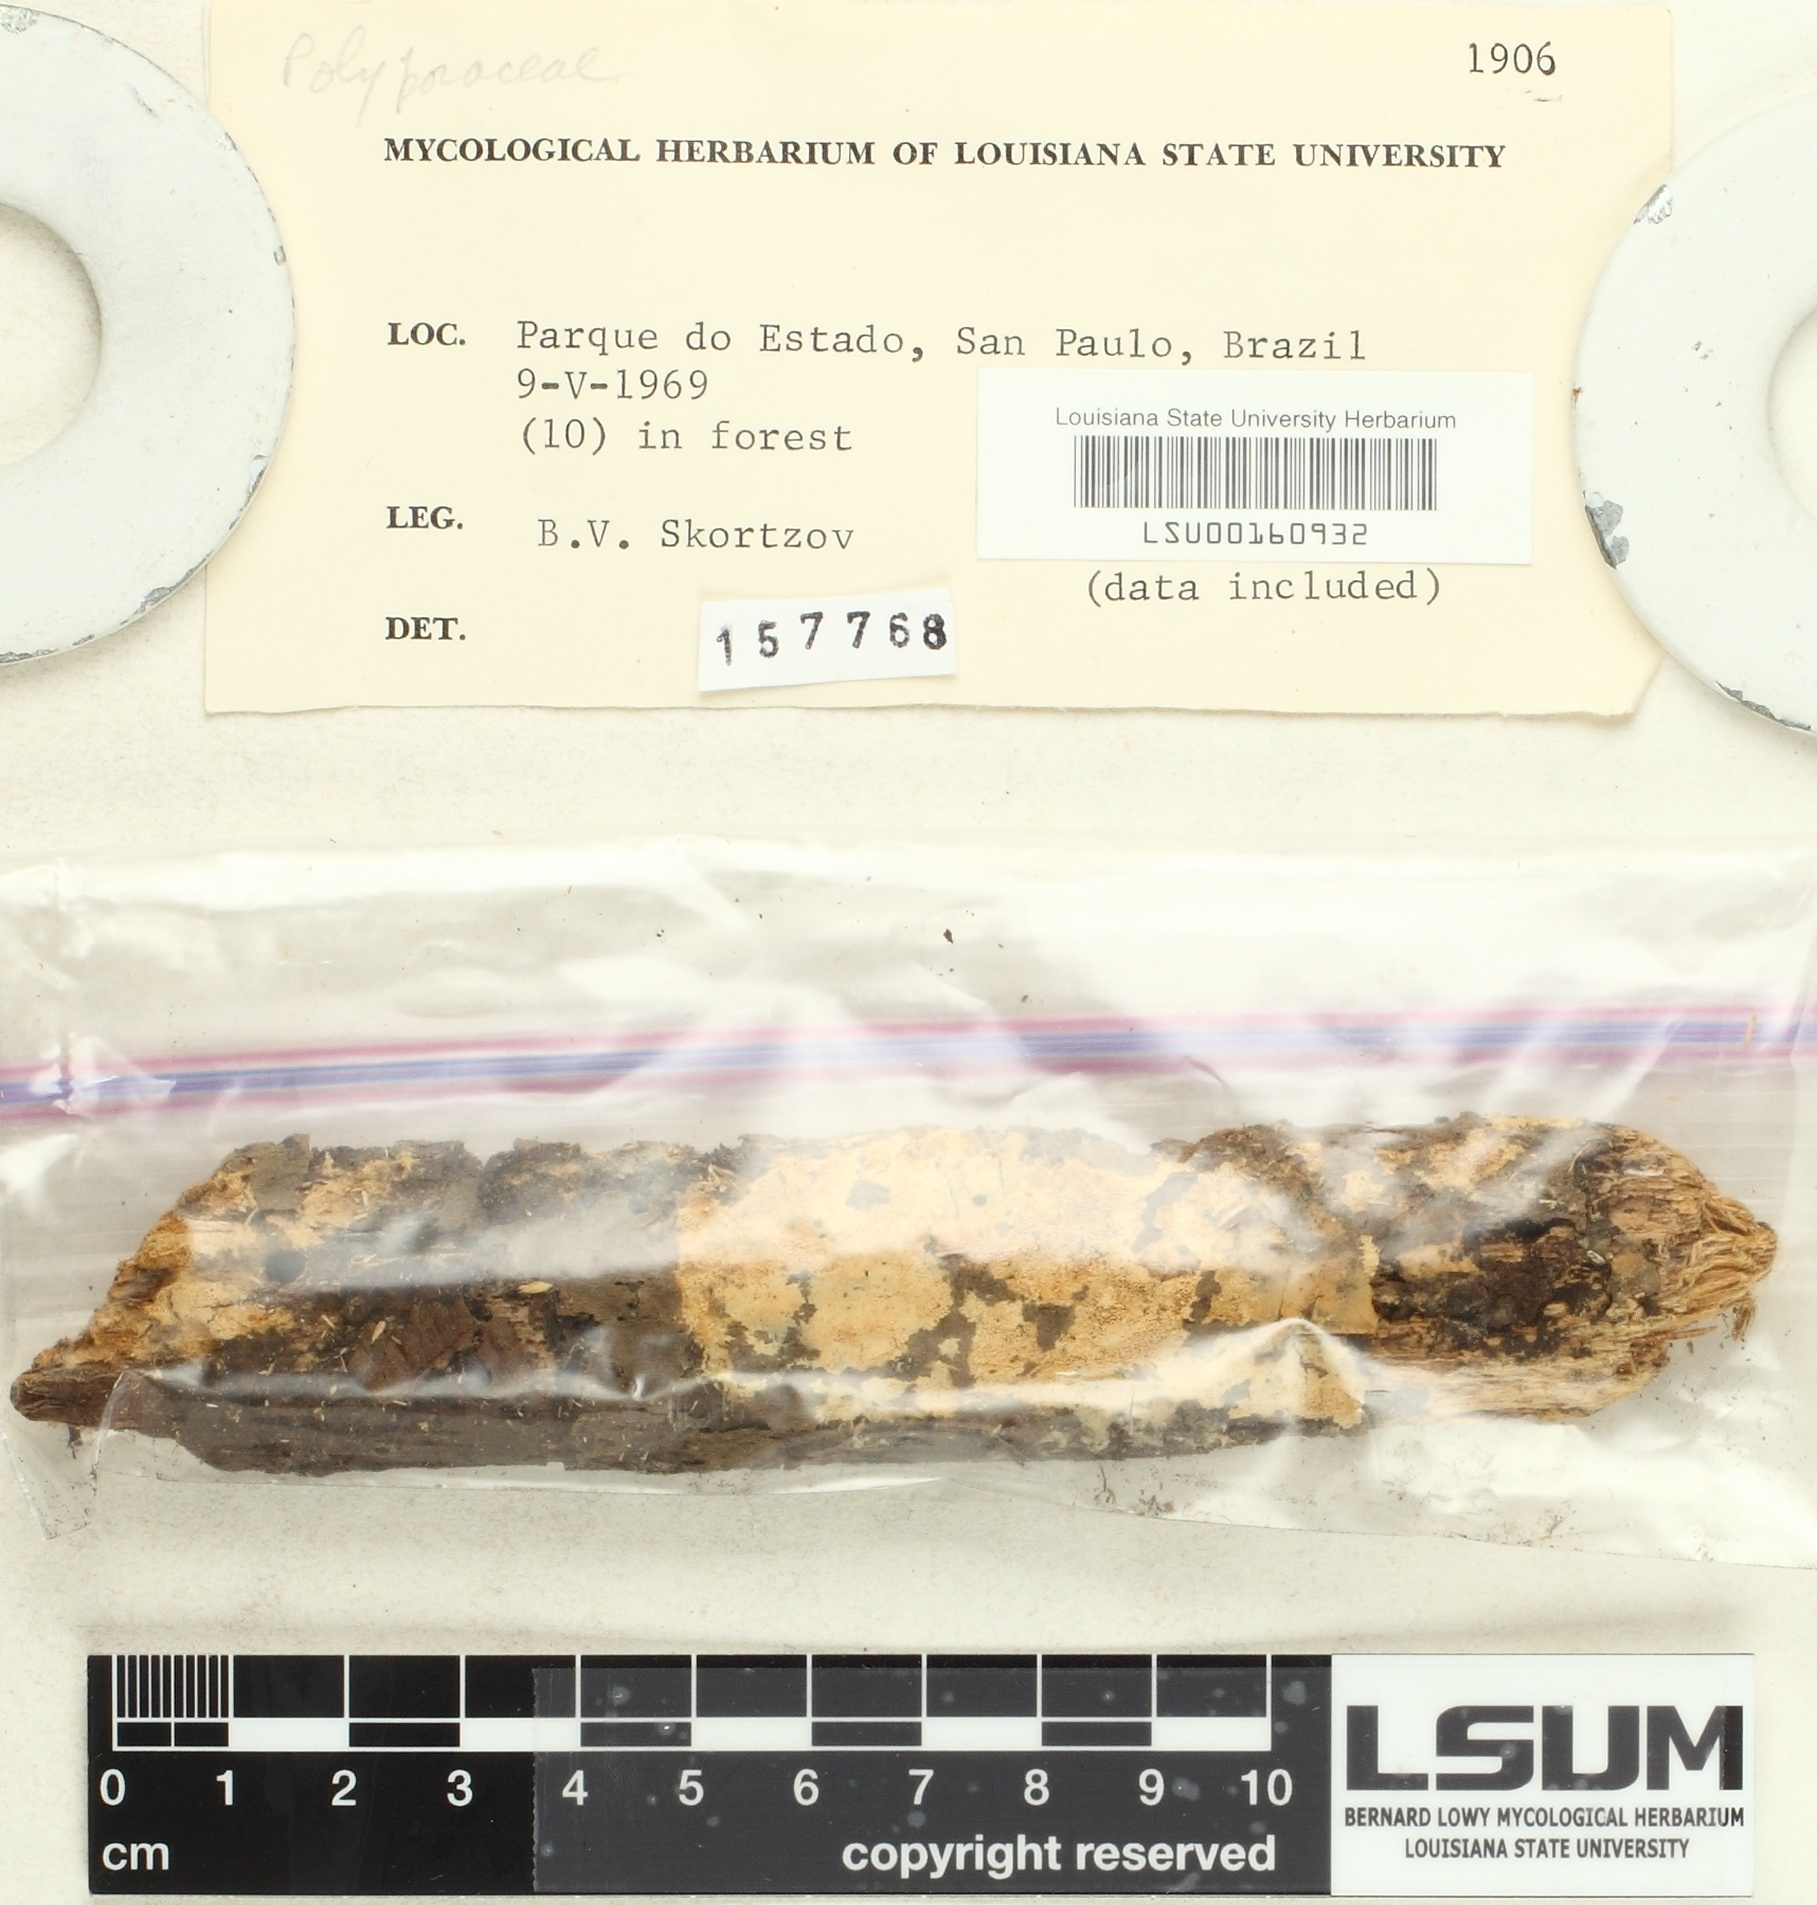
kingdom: Fungi
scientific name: Fungi
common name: Fungi
